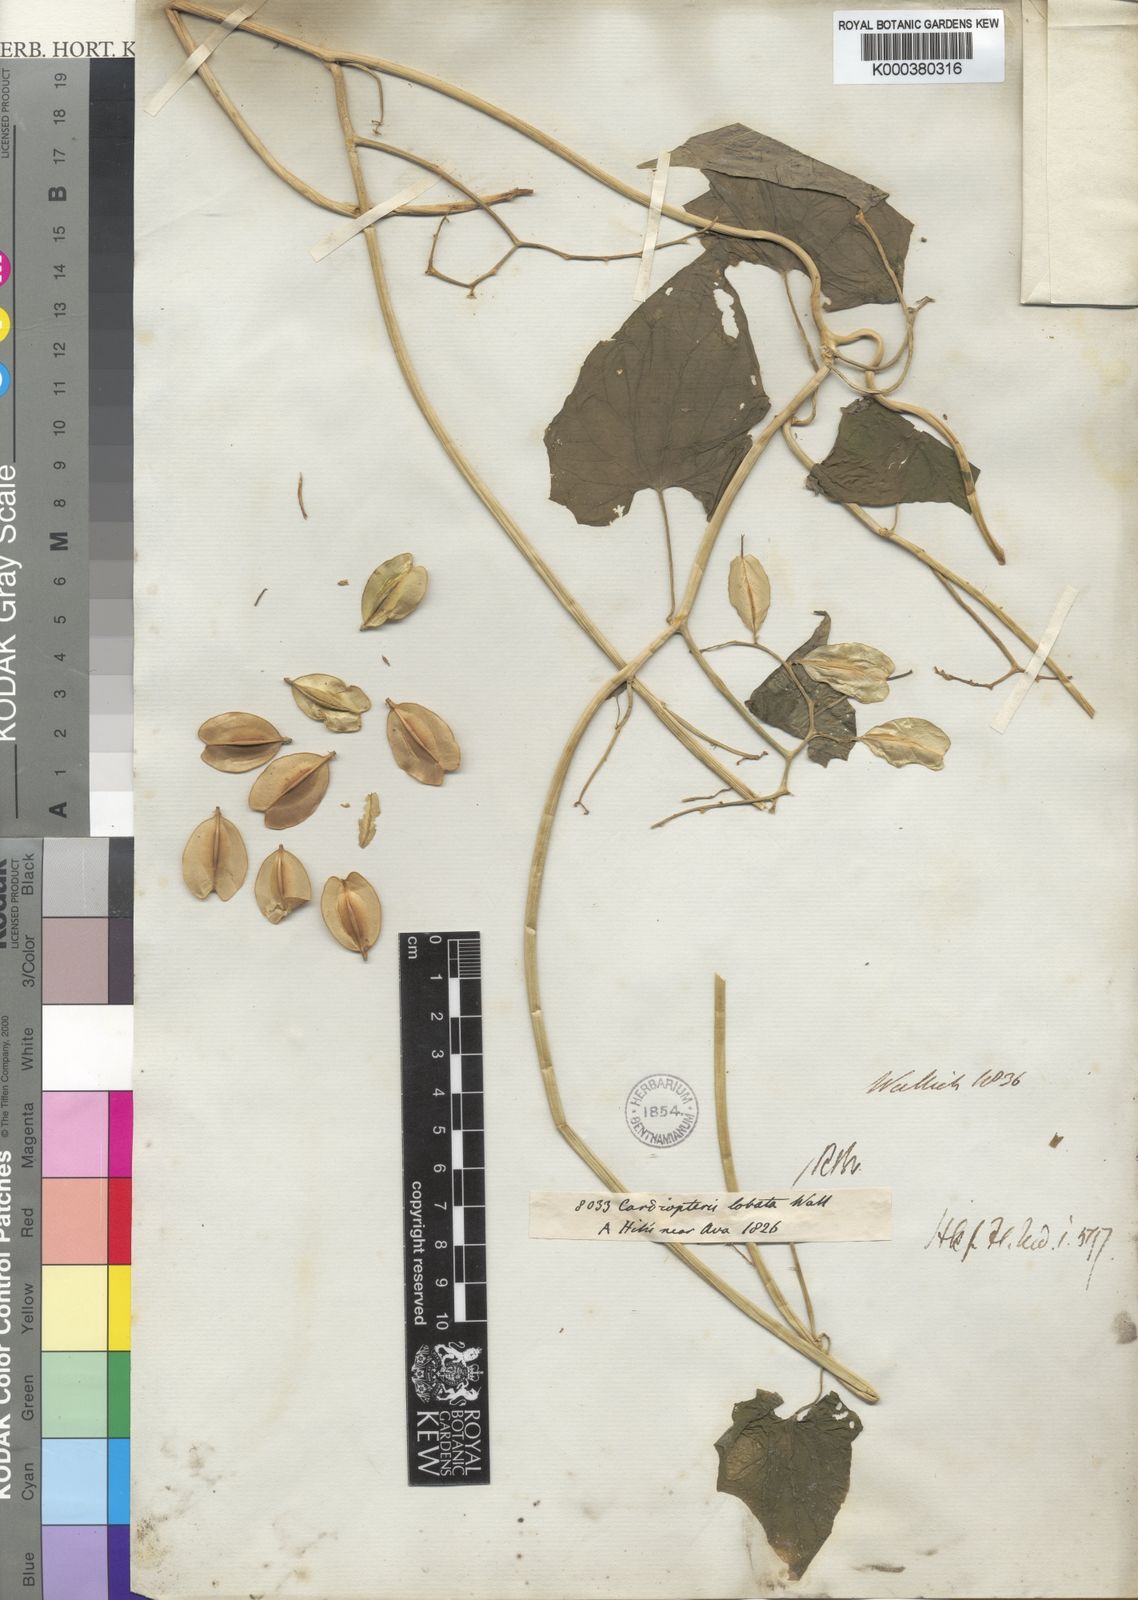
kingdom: Plantae
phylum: Tracheophyta
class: Magnoliopsida
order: Cardiopteridales
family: Cardiopteridaceae
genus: Cardiopteris
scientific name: Cardiopteris quinqueloba
